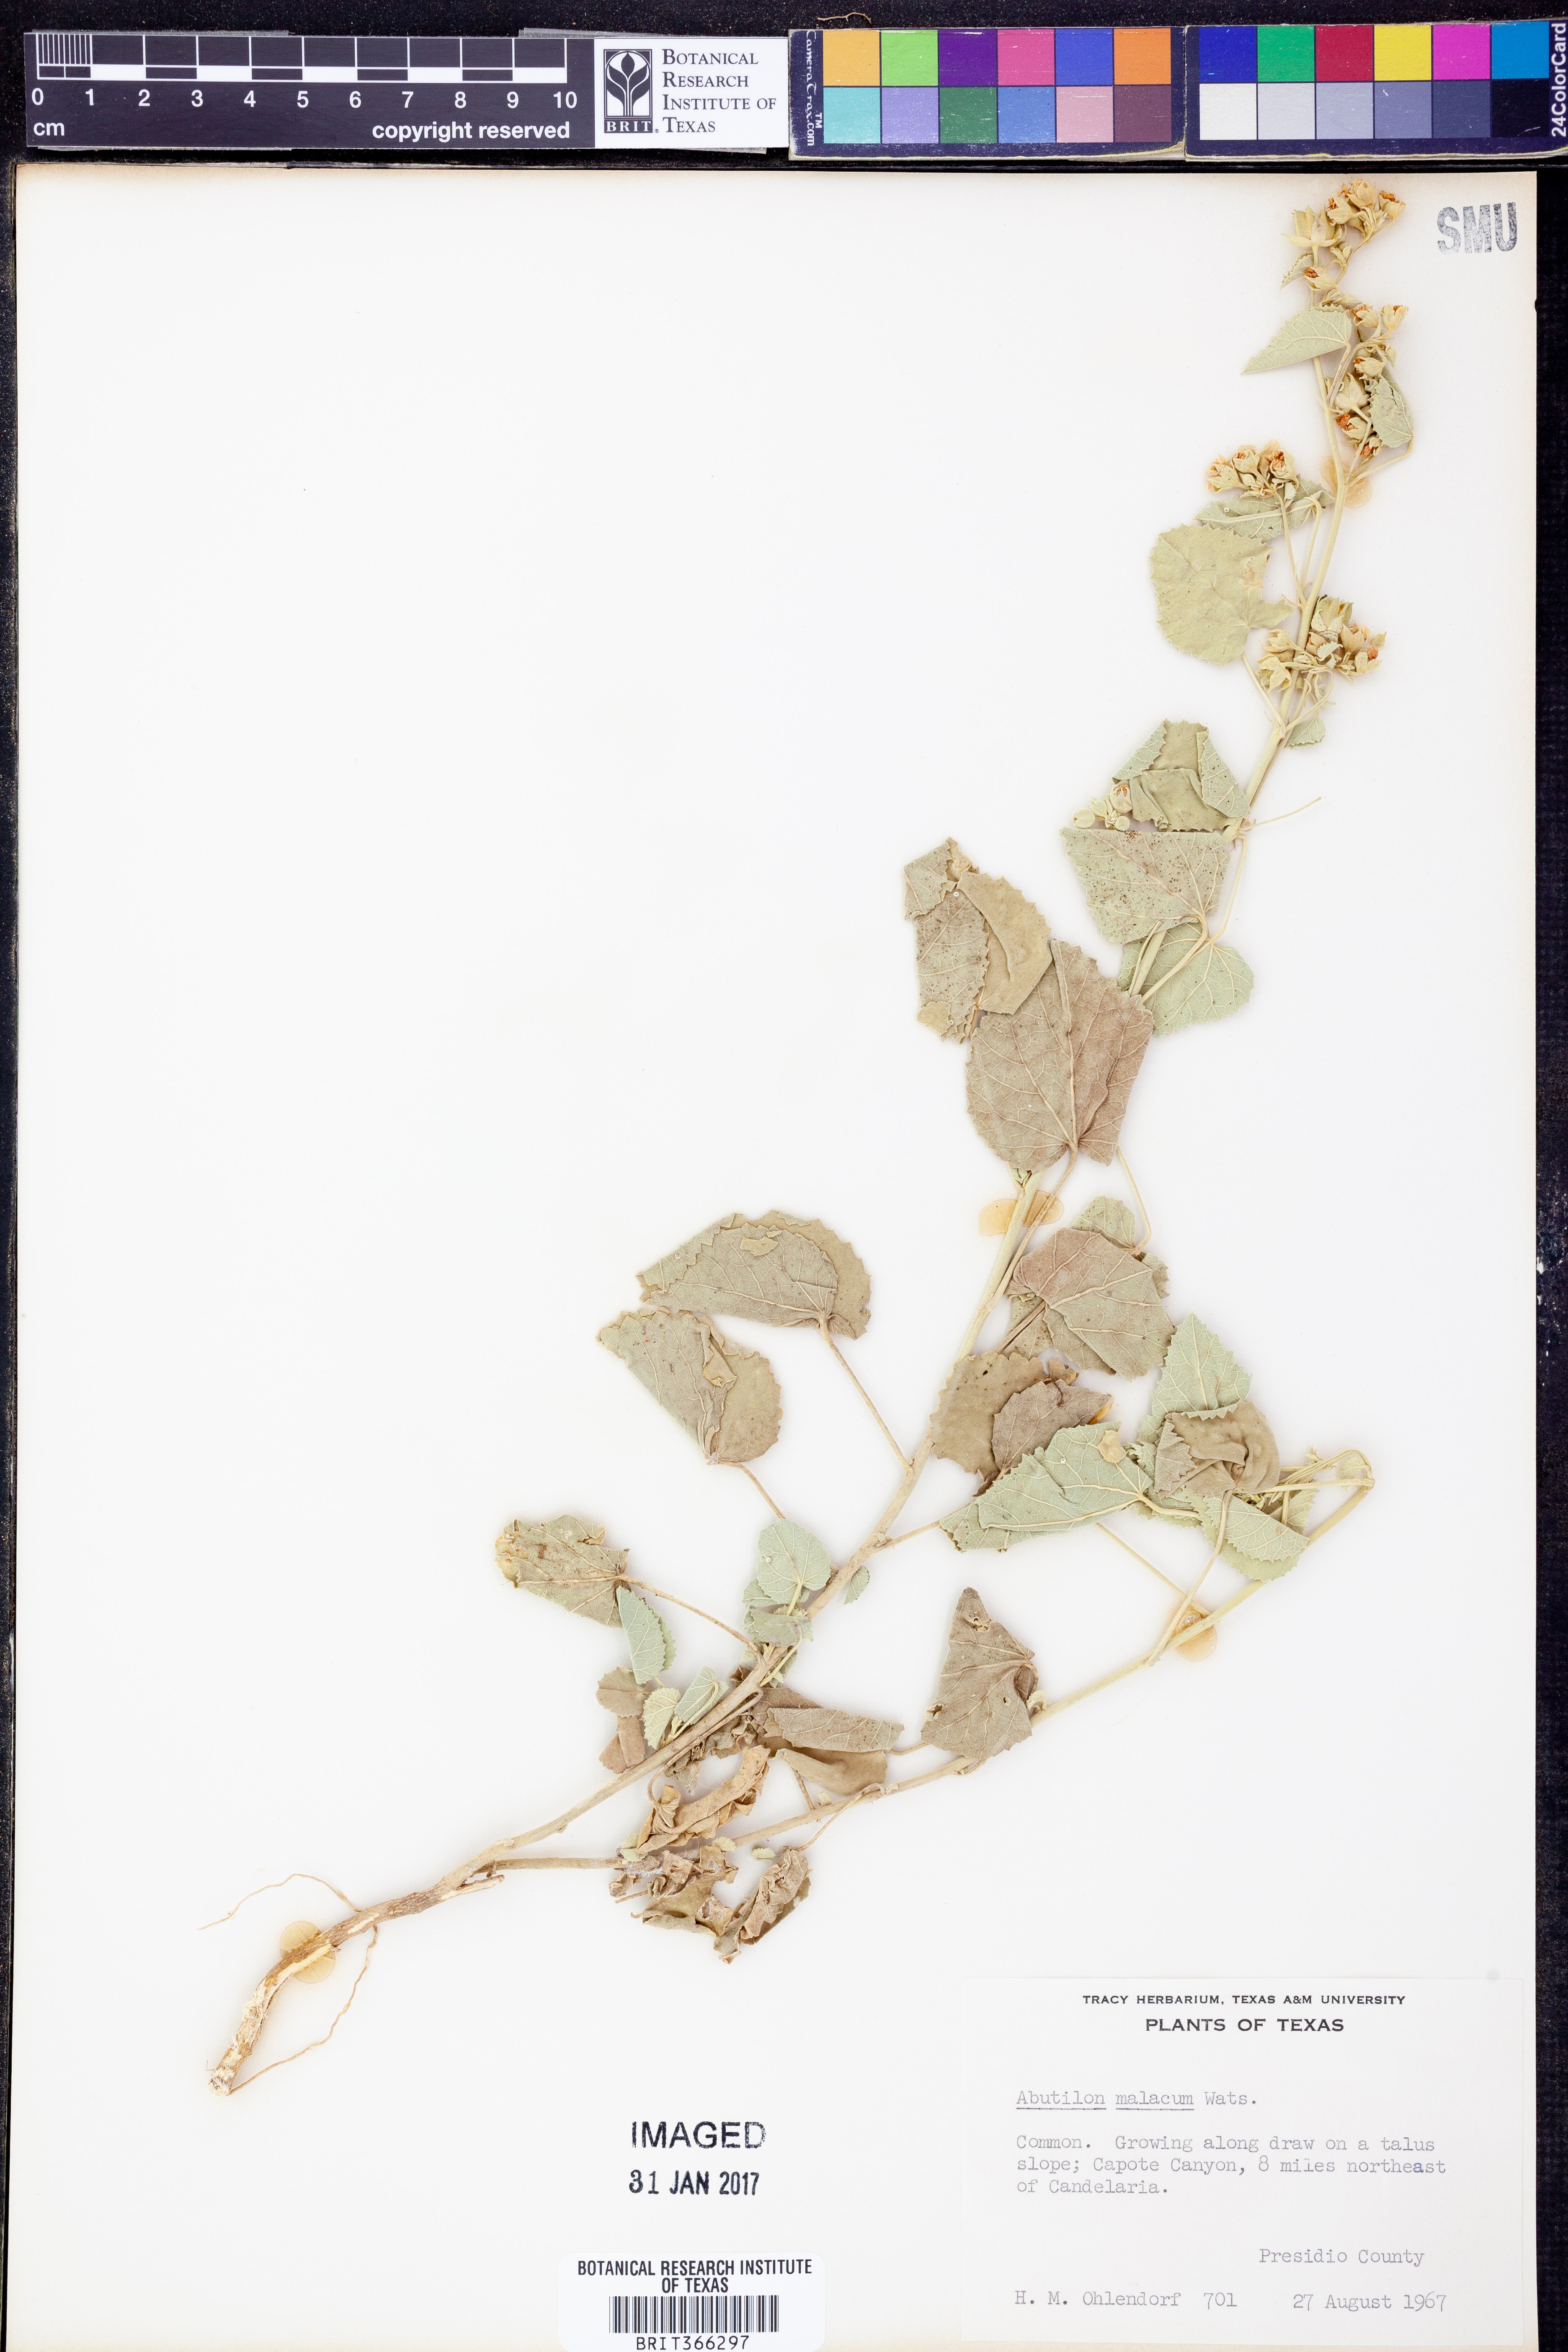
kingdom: Plantae
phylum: Tracheophyta
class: Magnoliopsida
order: Malvales
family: Malvaceae
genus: Abutilon
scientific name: Abutilon malacum
